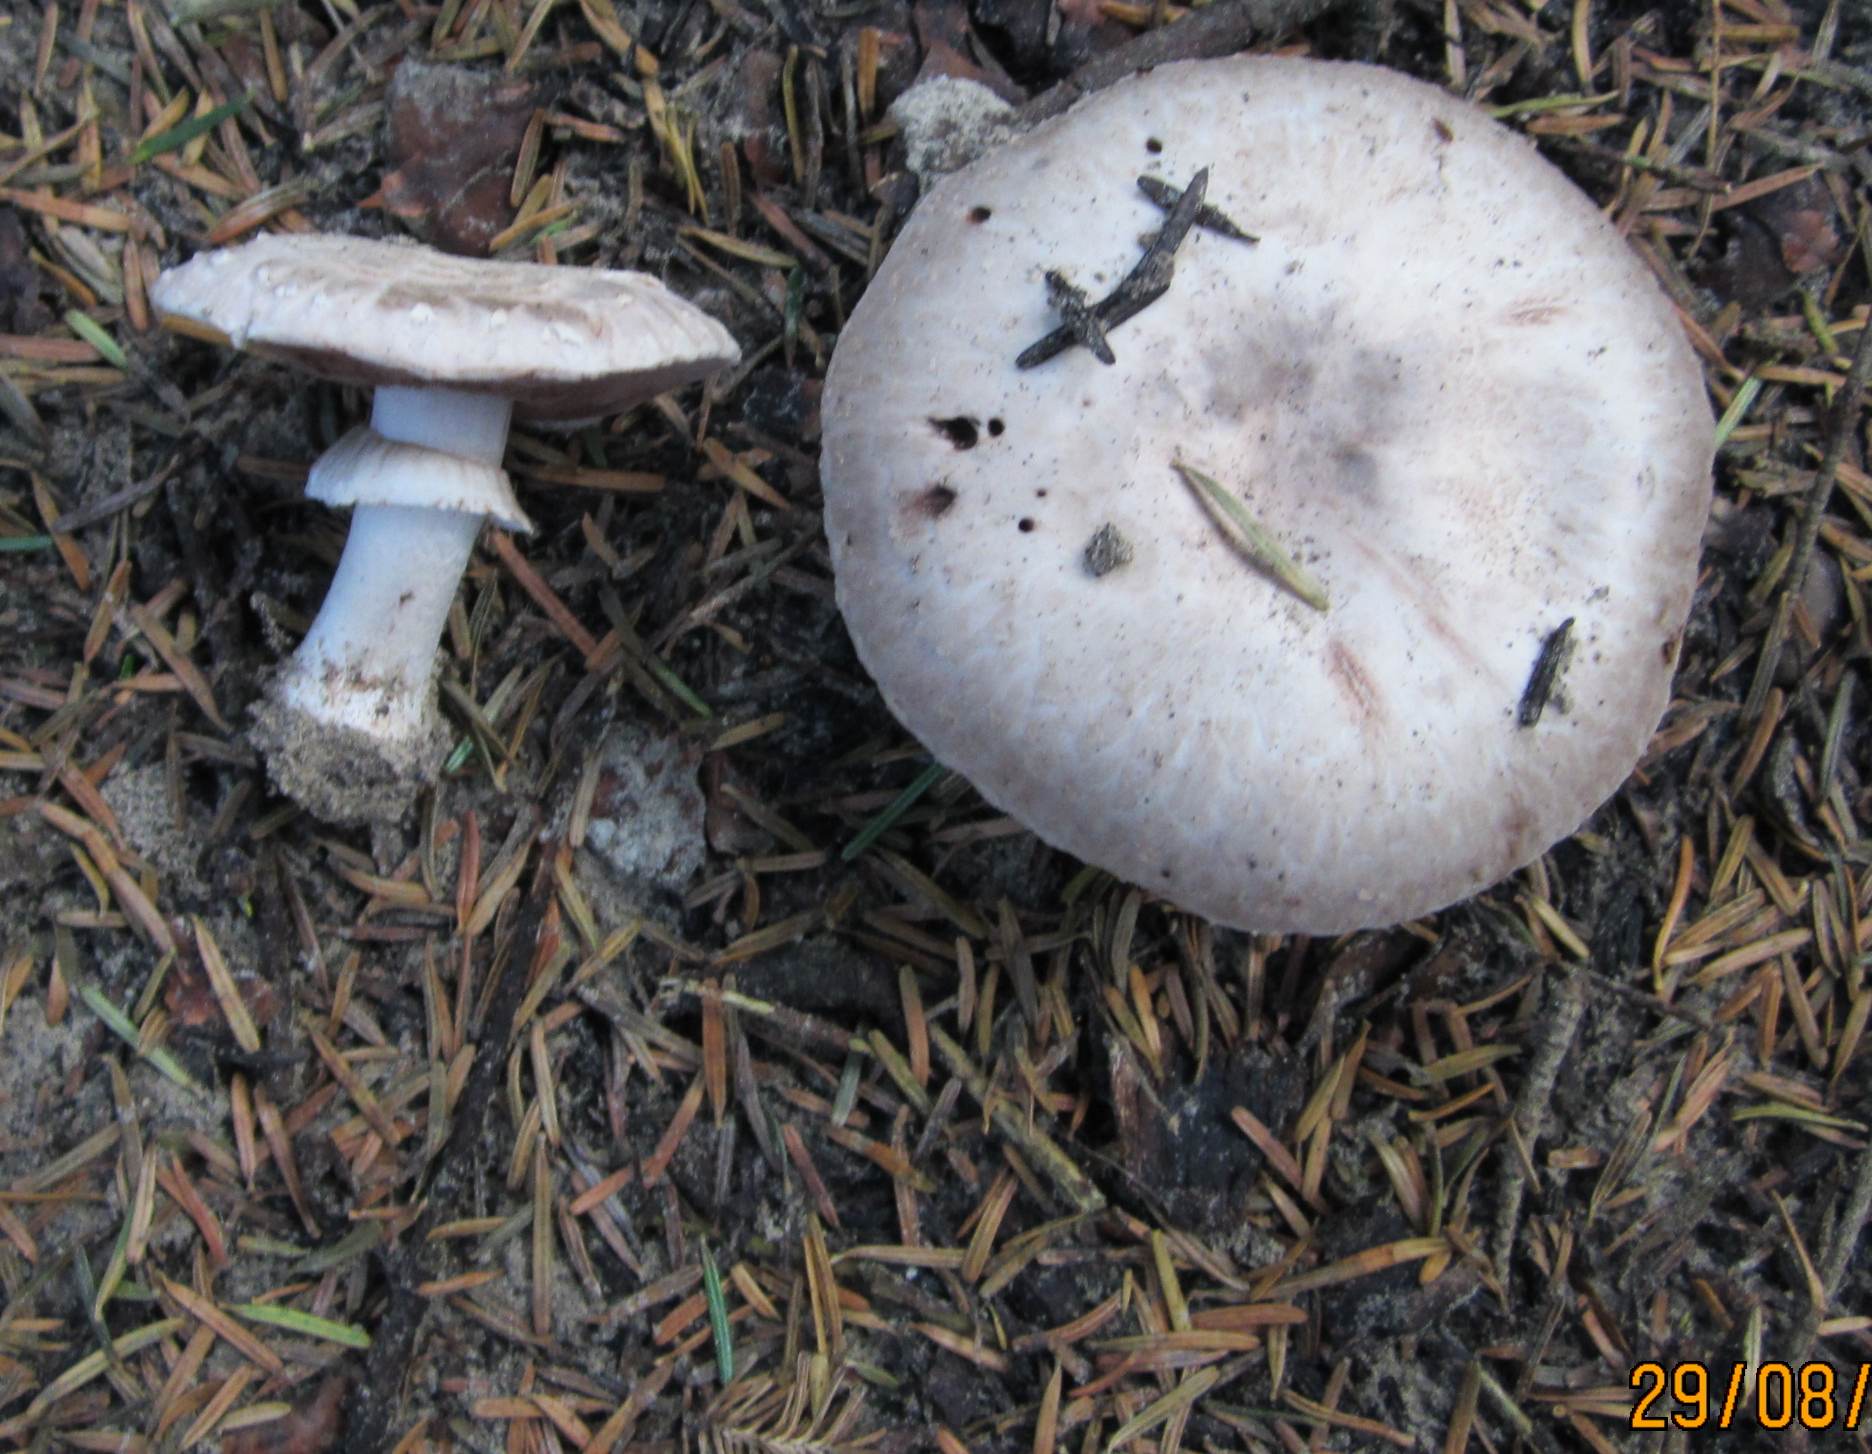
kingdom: Fungi
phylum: Basidiomycota
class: Agaricomycetes
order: Agaricales
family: Agaricaceae
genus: Agaricus
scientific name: Agaricus subfloccosus
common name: randskællet champignon
